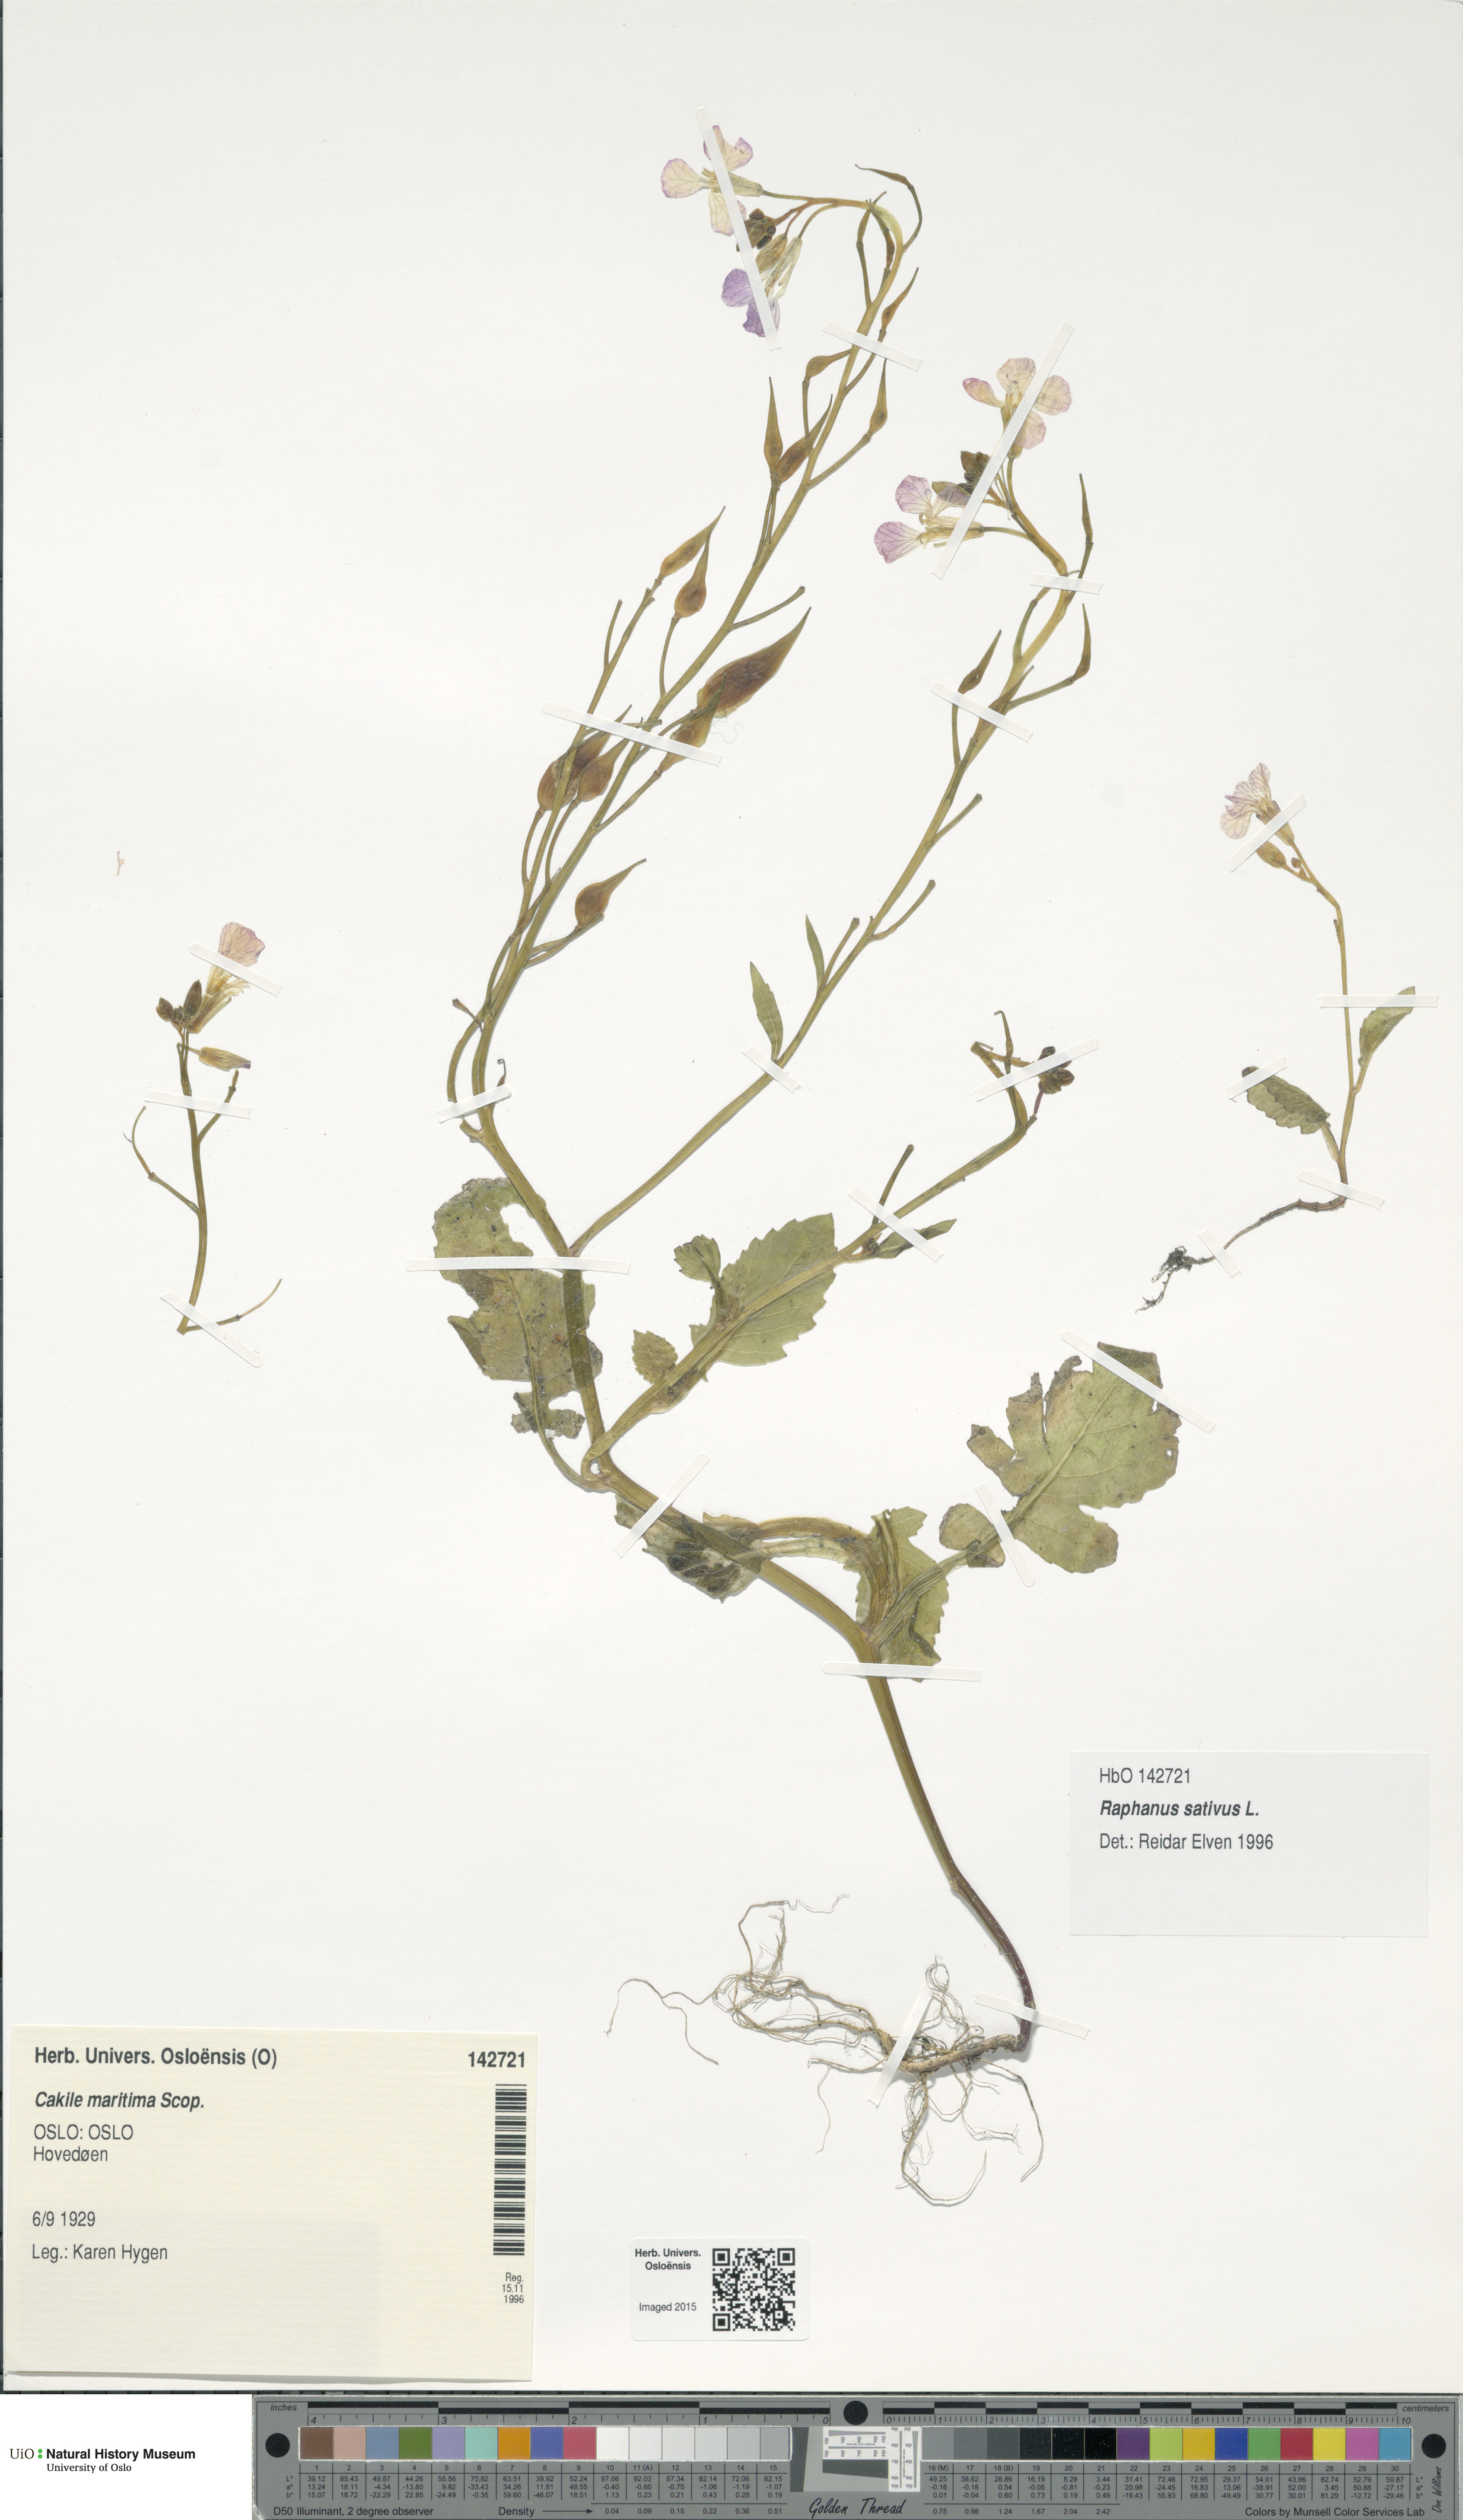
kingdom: Plantae
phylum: Tracheophyta
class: Magnoliopsida
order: Brassicales
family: Brassicaceae
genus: Raphanus
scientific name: Raphanus sativus
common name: Cultivated radish
